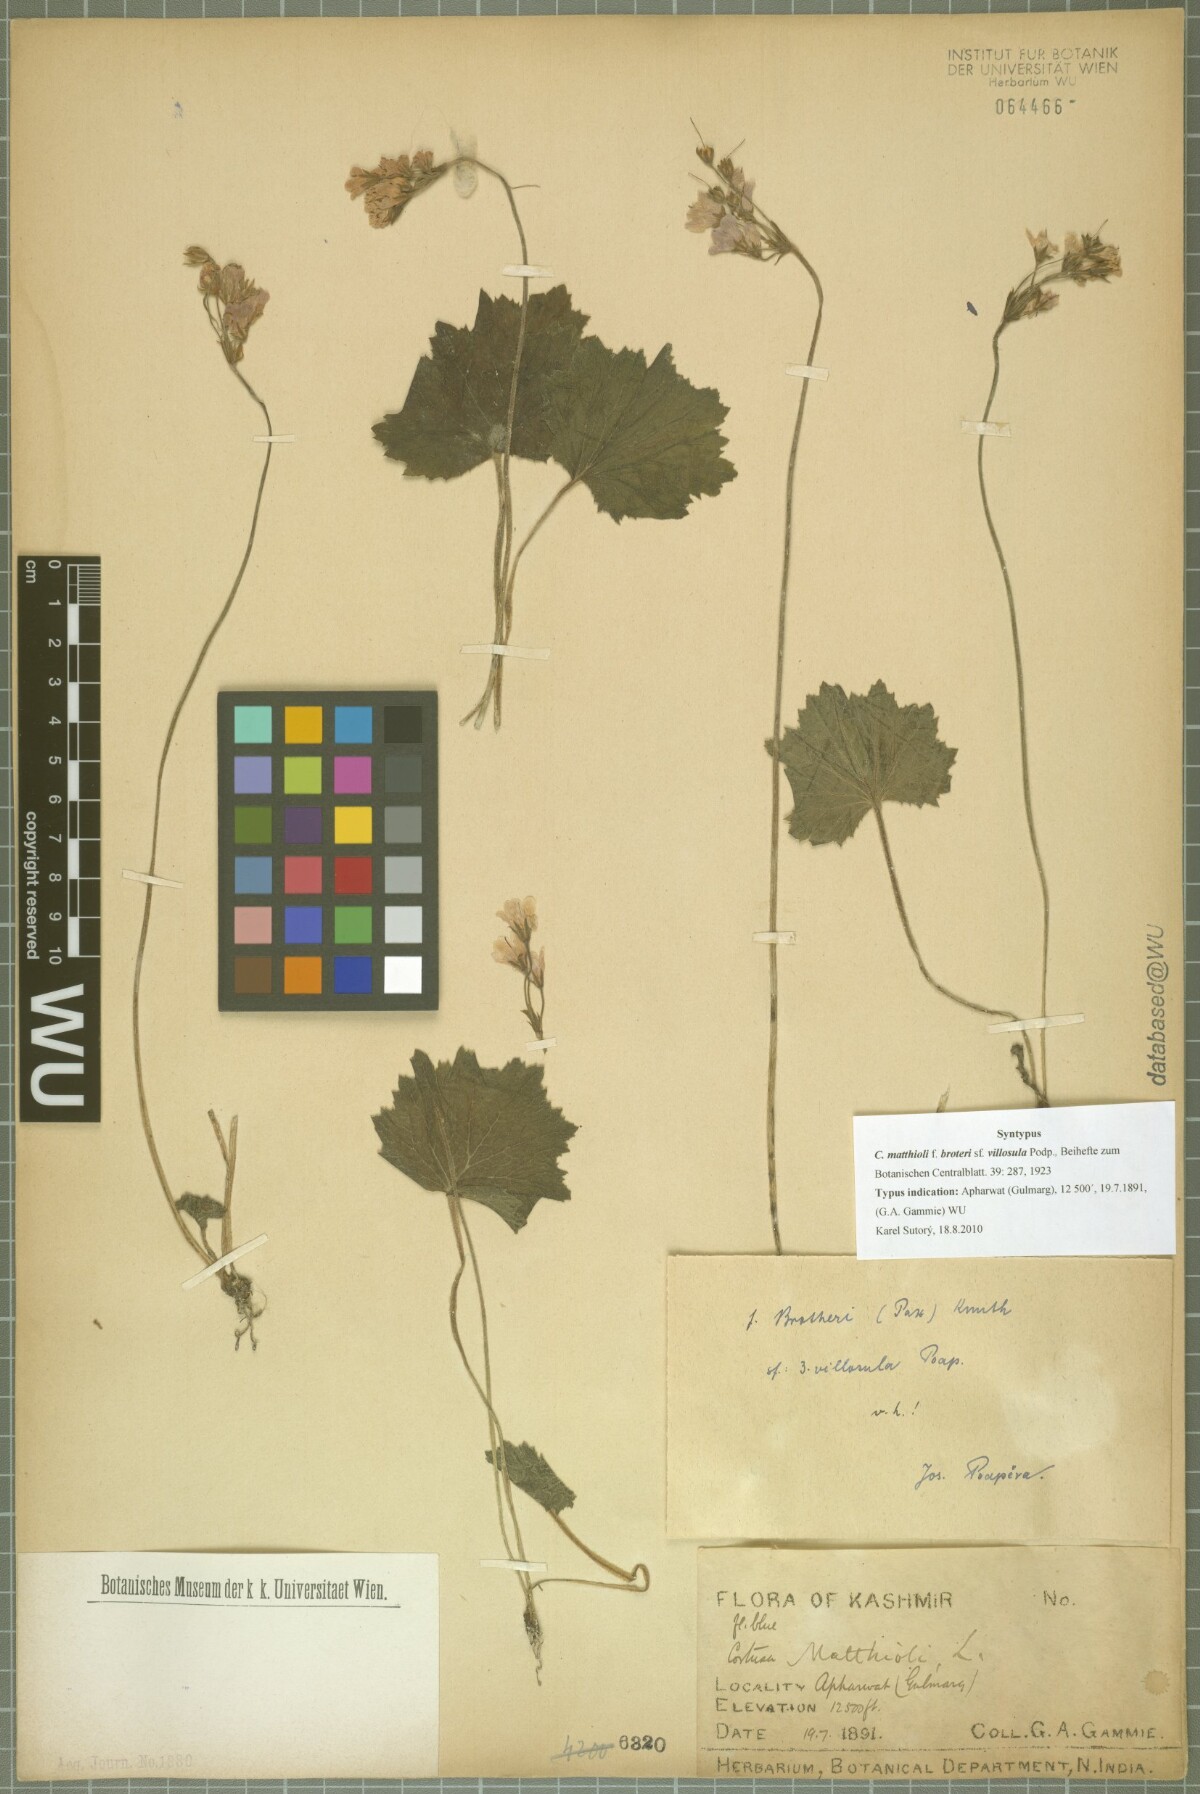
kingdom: Plantae
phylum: Tracheophyta
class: Magnoliopsida
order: Ericales
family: Primulaceae
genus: Primula
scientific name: Primula matthioli
